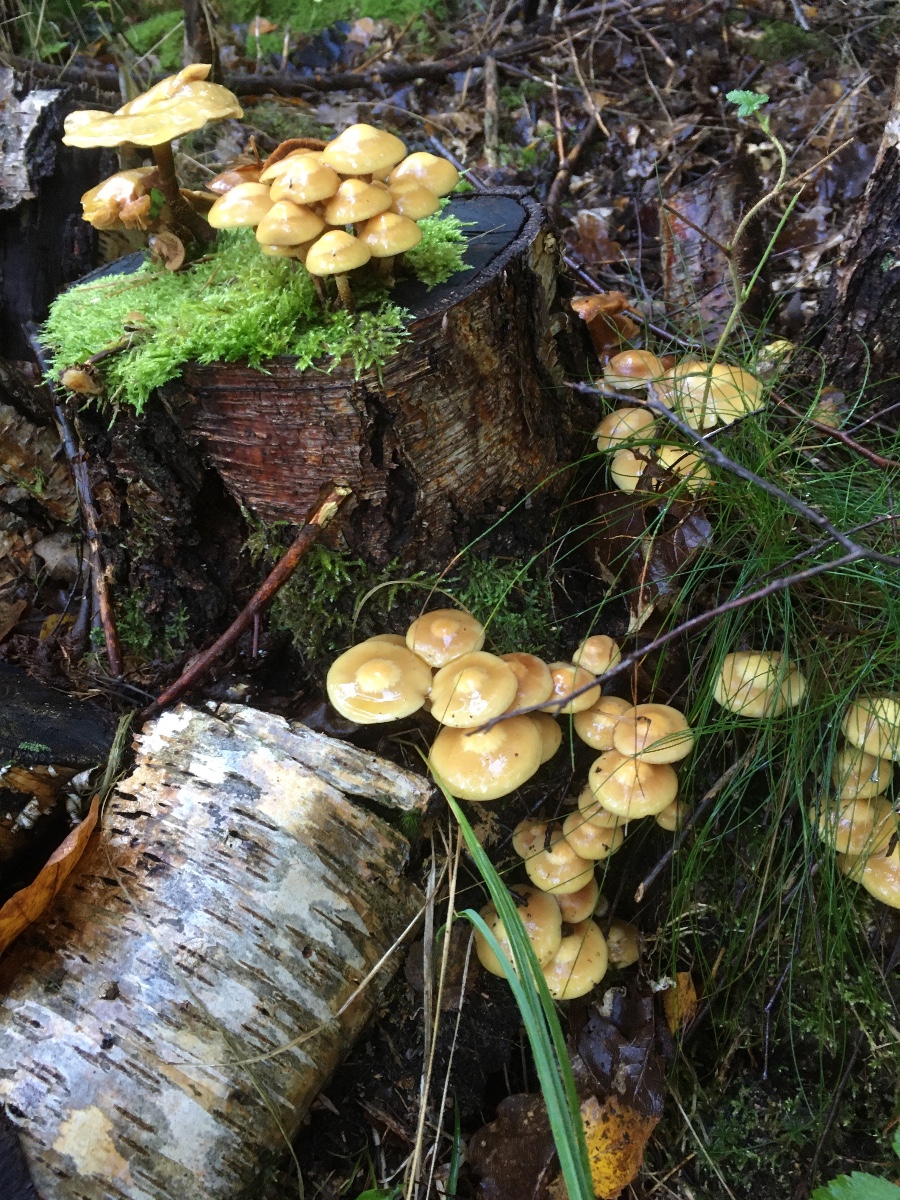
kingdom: Fungi
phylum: Basidiomycota
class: Agaricomycetes
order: Agaricales
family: Strophariaceae
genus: Kuehneromyces
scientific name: Kuehneromyces mutabilis
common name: foranderlig skælhat
